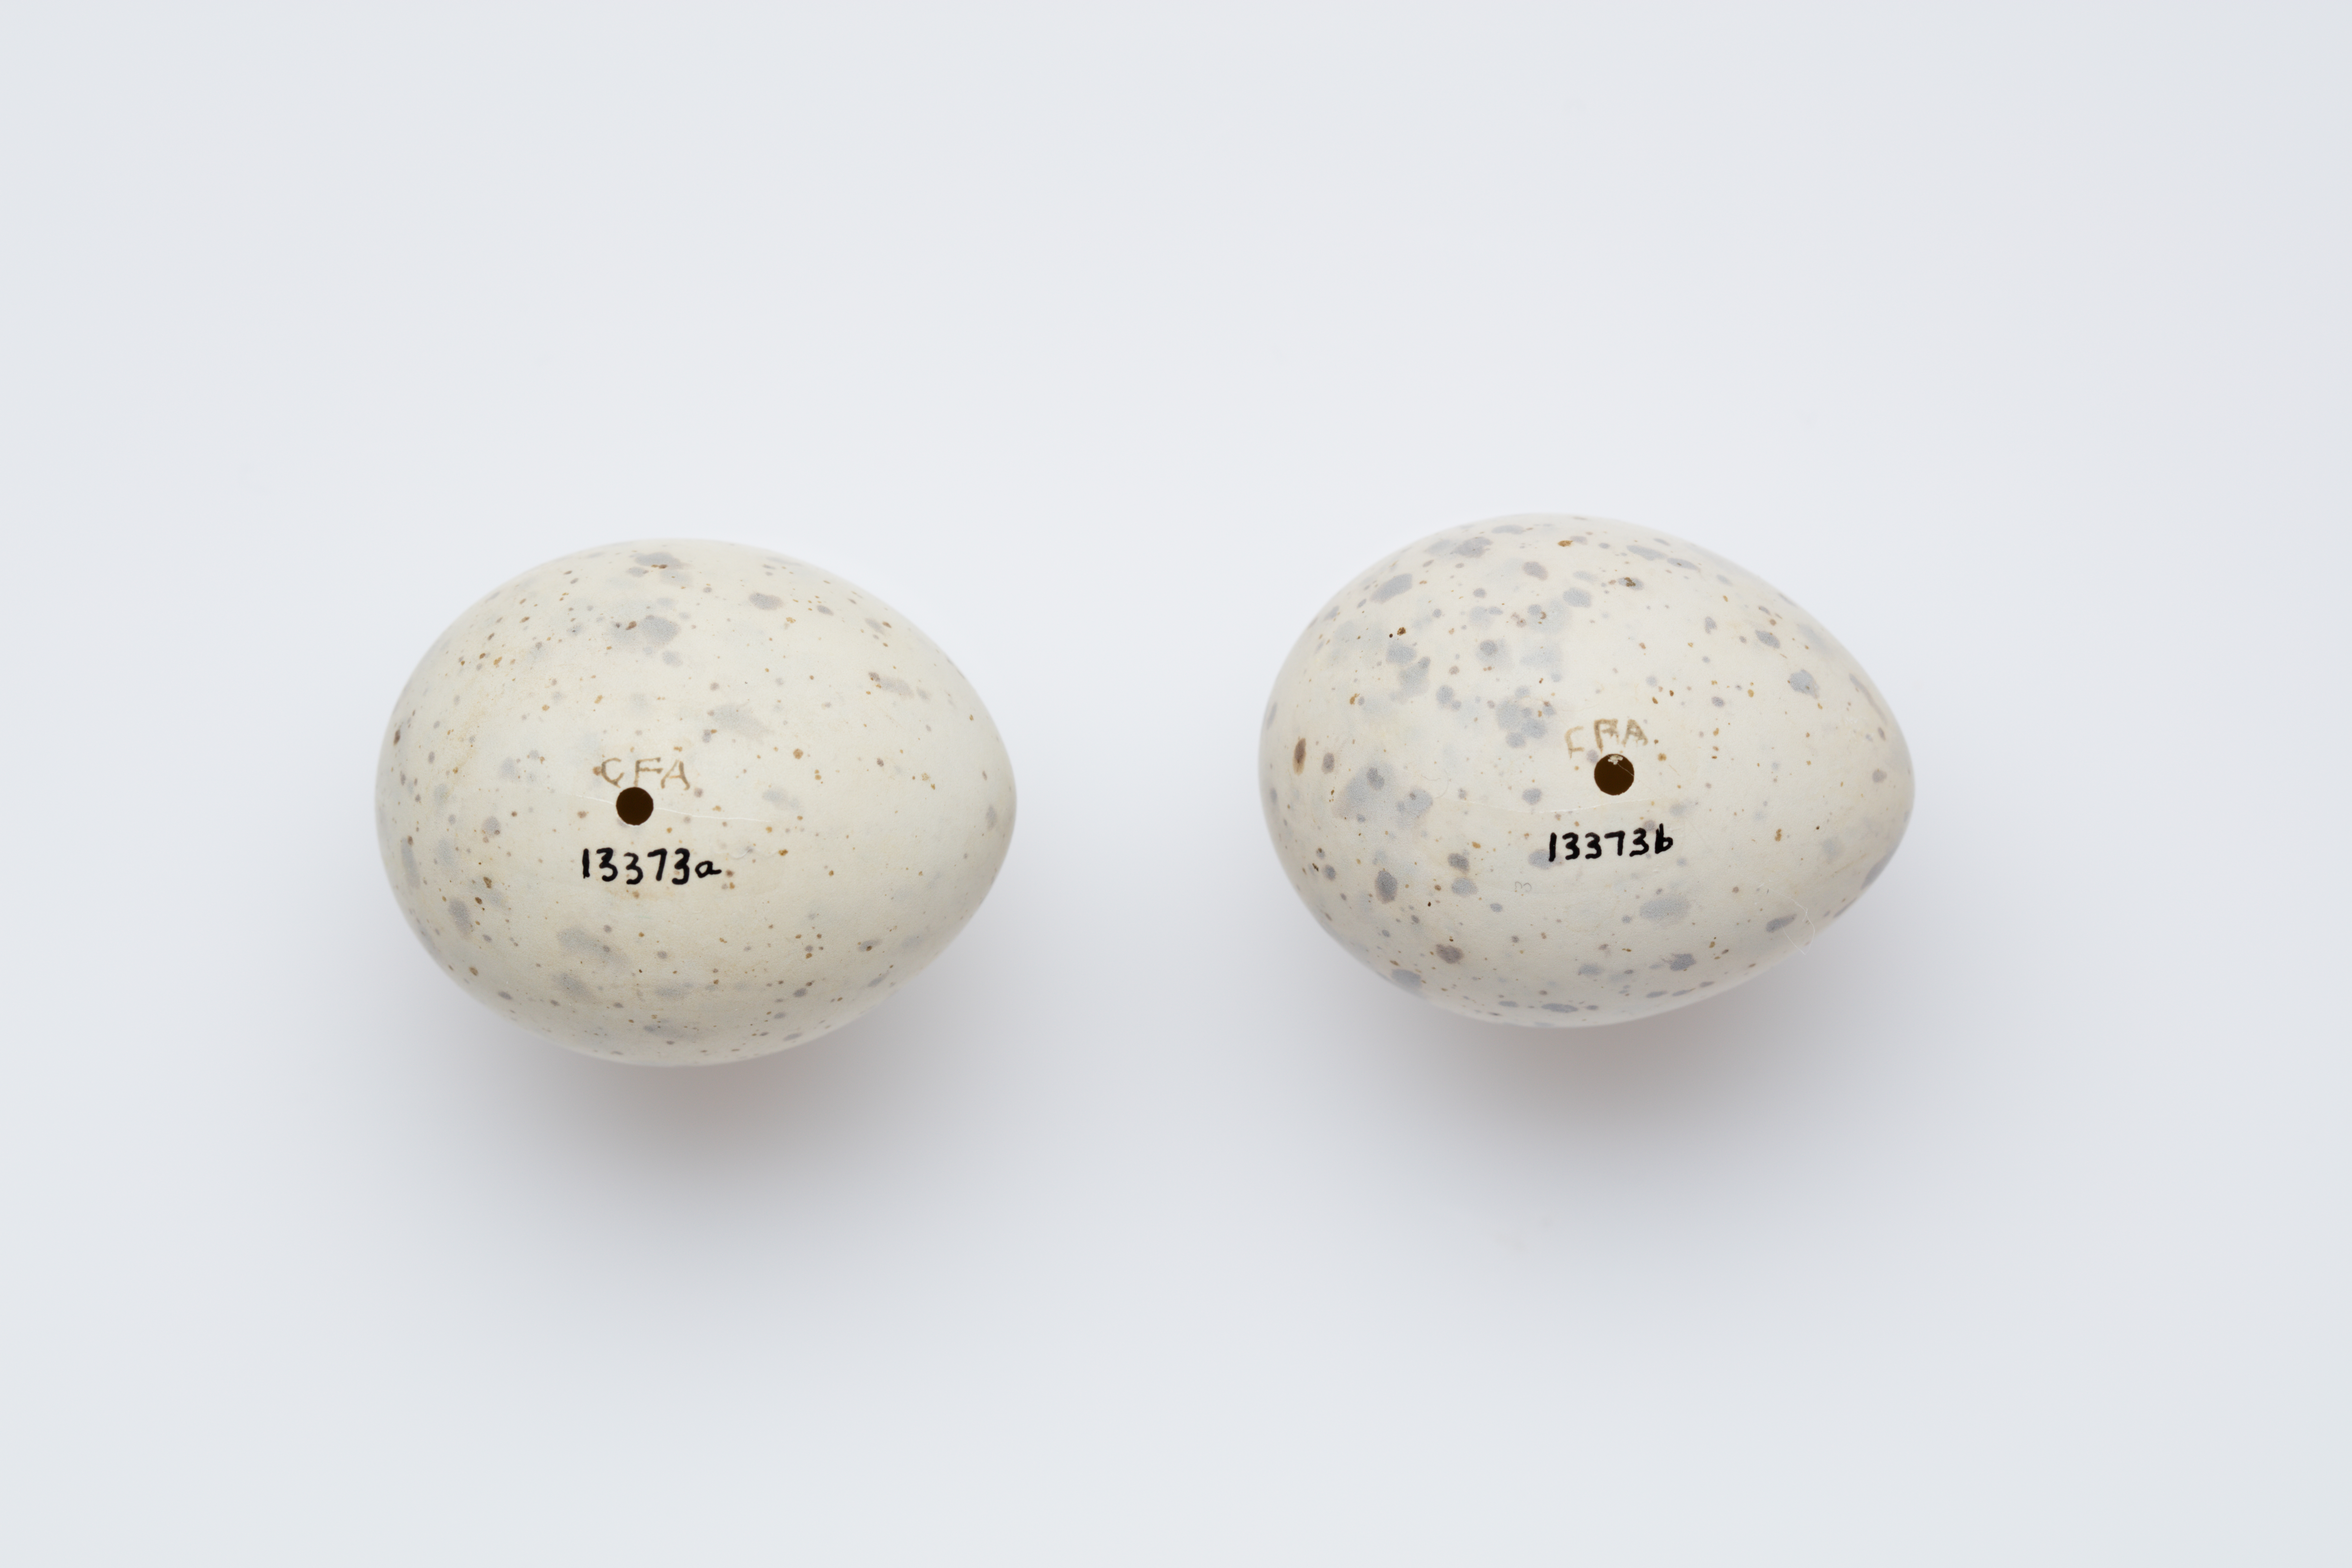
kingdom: Animalia
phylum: Chordata
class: Aves
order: Charadriiformes
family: Laridae
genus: Sternula
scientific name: Sternula nereis
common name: Fairy tern
